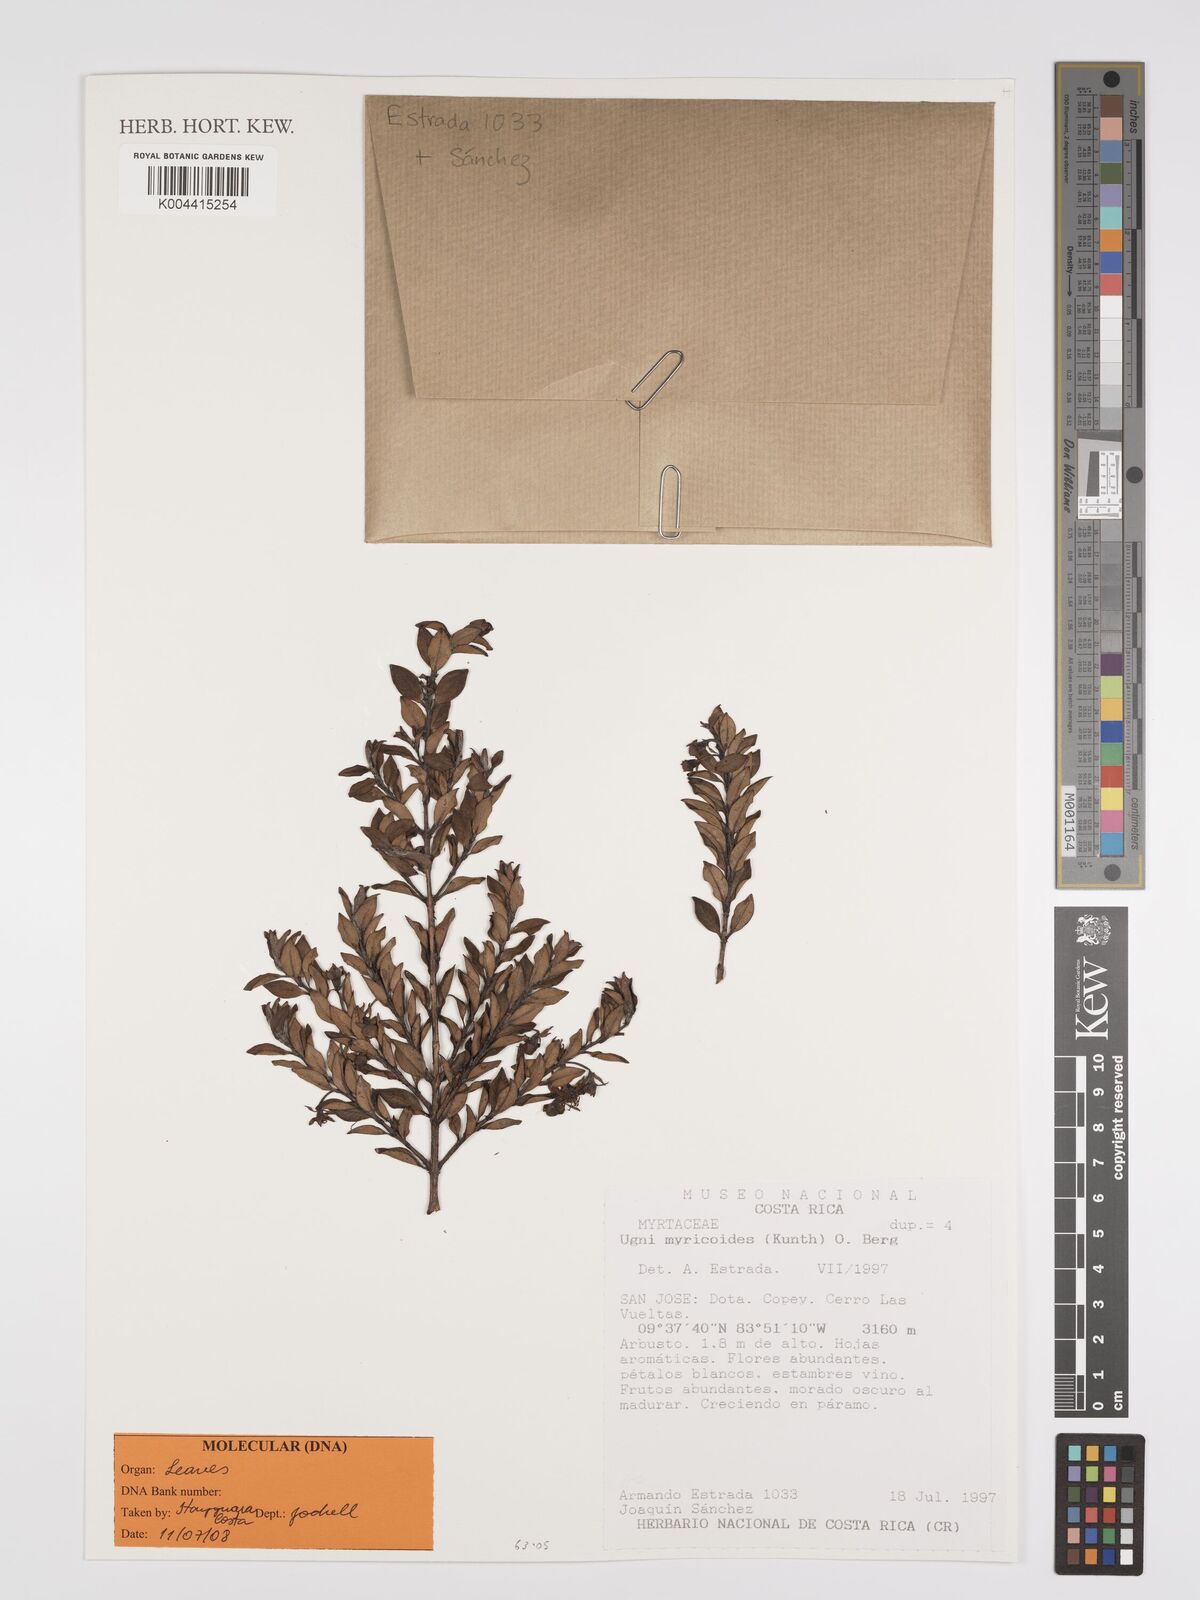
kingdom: Plantae
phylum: Tracheophyta
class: Magnoliopsida
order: Myrtales
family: Myrtaceae
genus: Ugni
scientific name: Ugni myricoides
